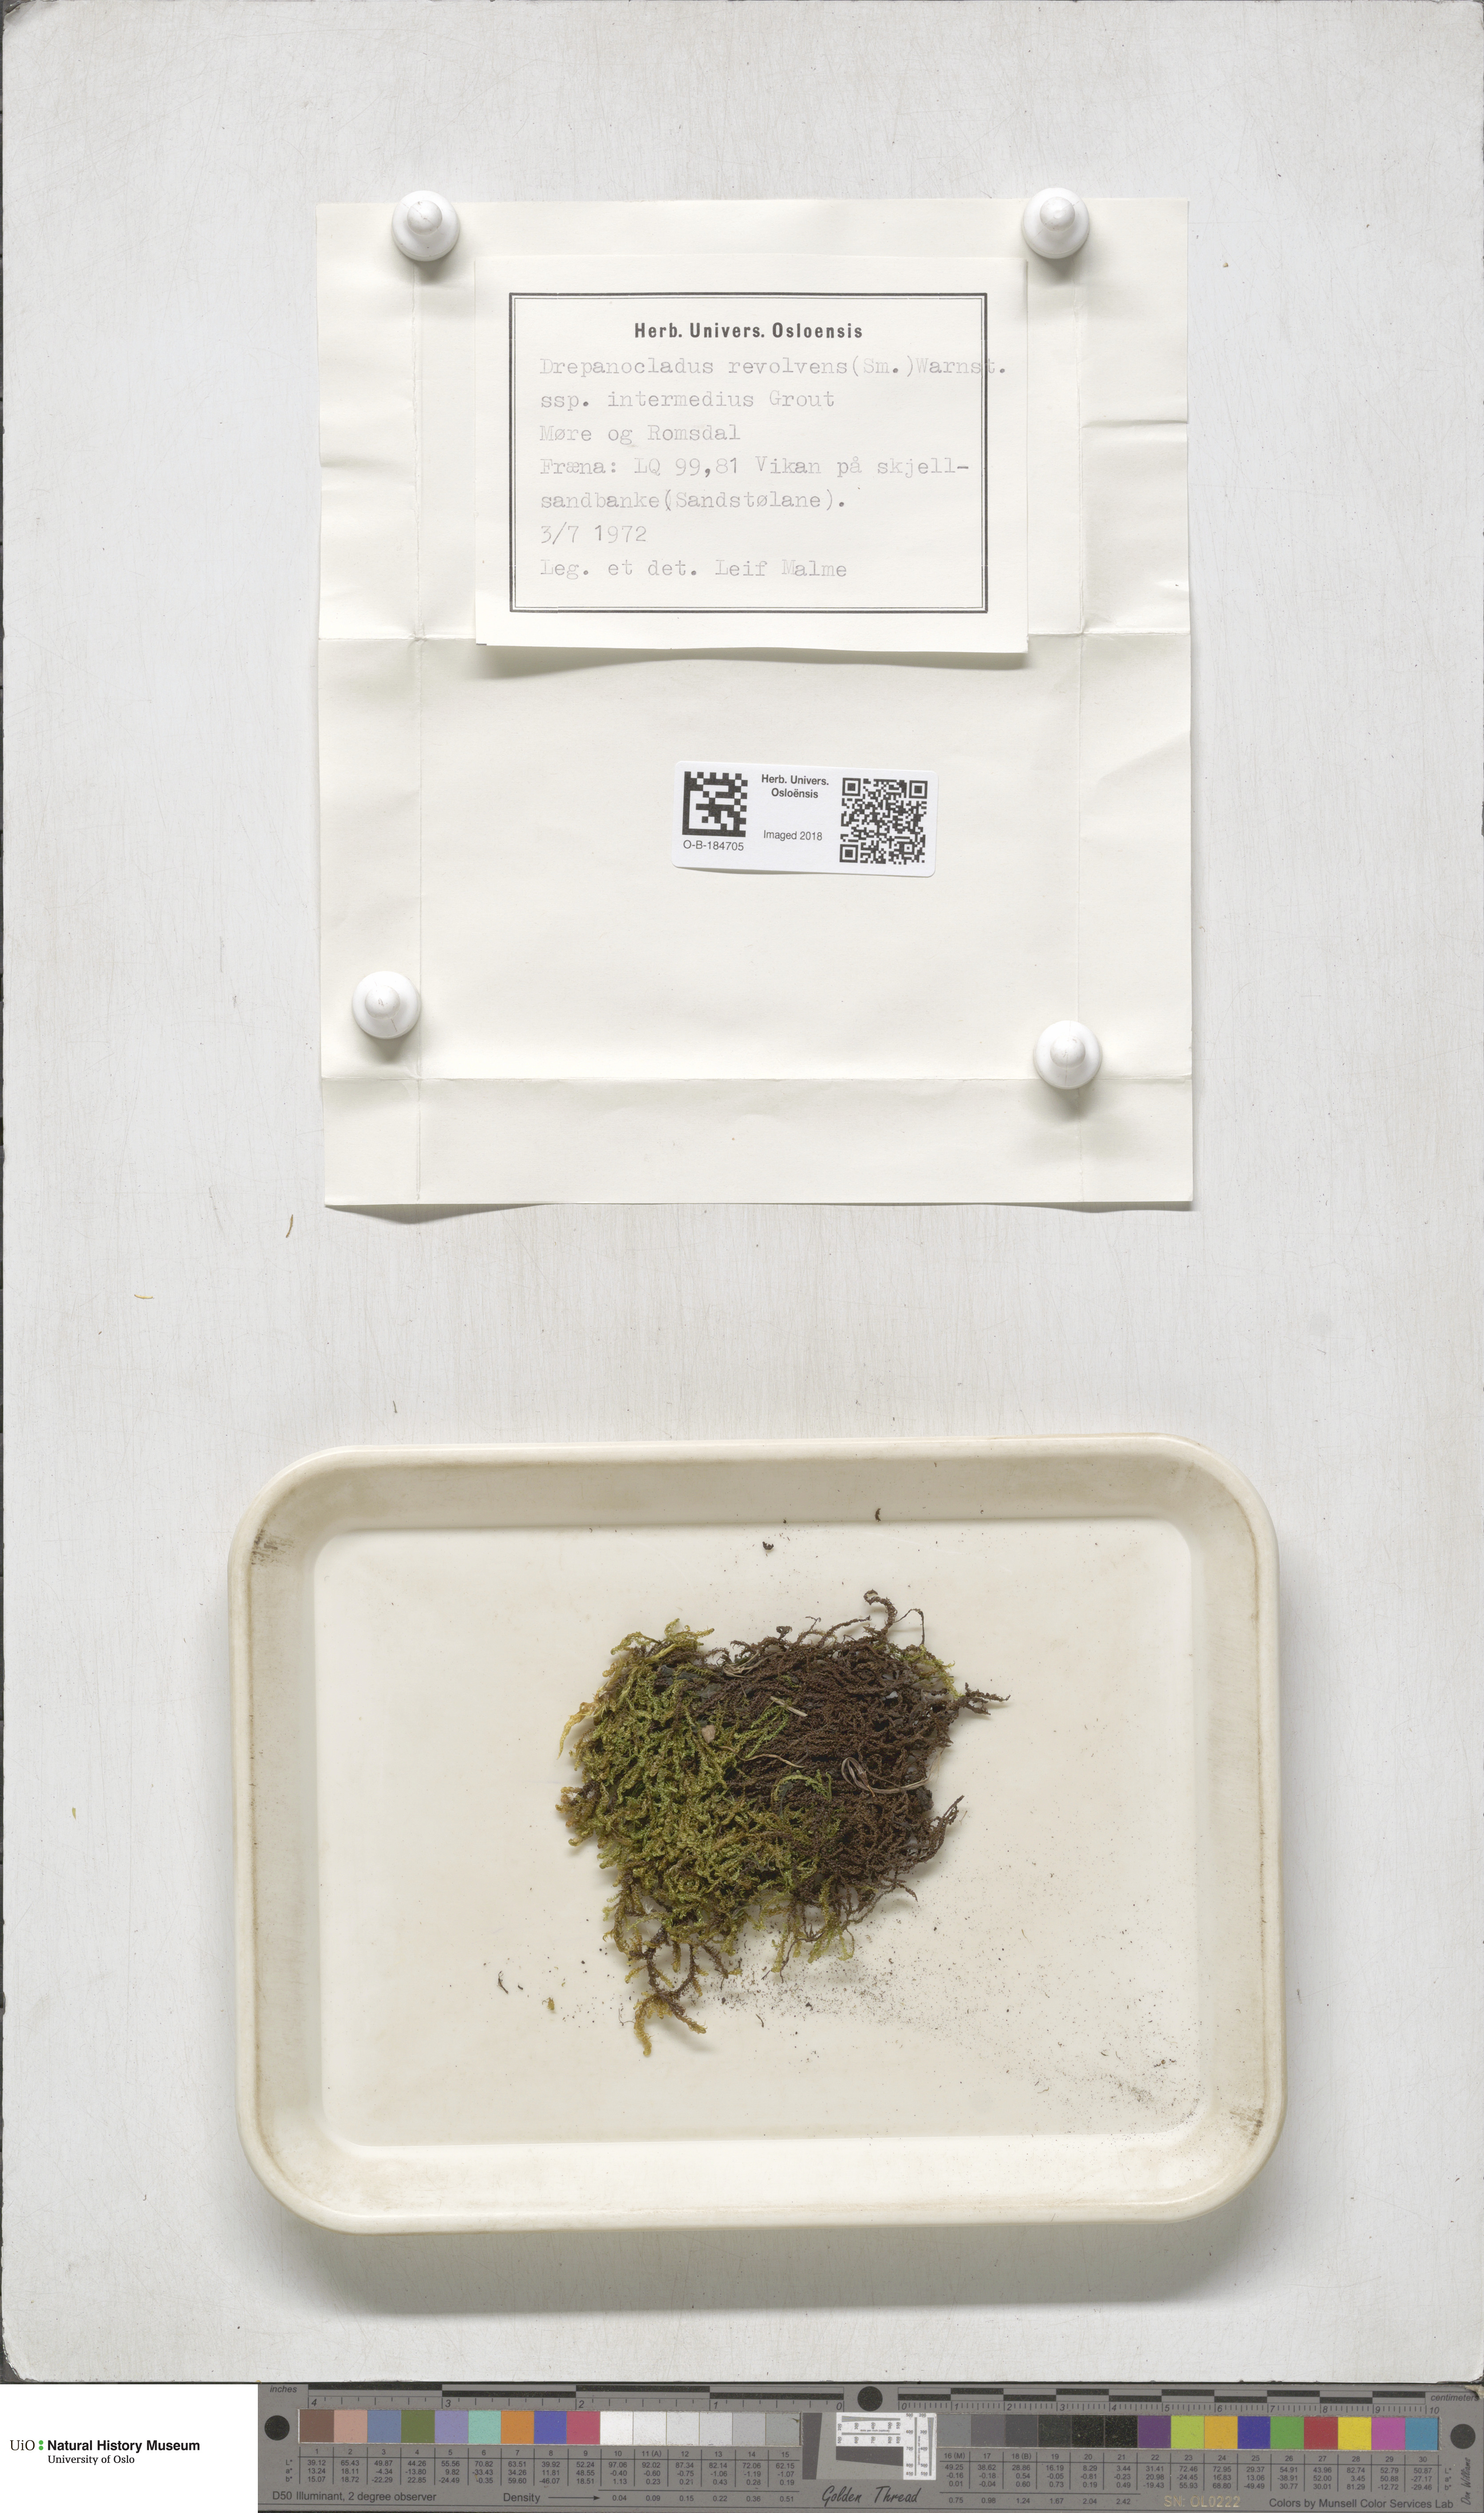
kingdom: Plantae
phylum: Bryophyta
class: Bryopsida
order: Hypnales
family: Scorpidiaceae
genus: Scorpidium
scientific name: Scorpidium cossonii
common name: Cosson's hook moss
